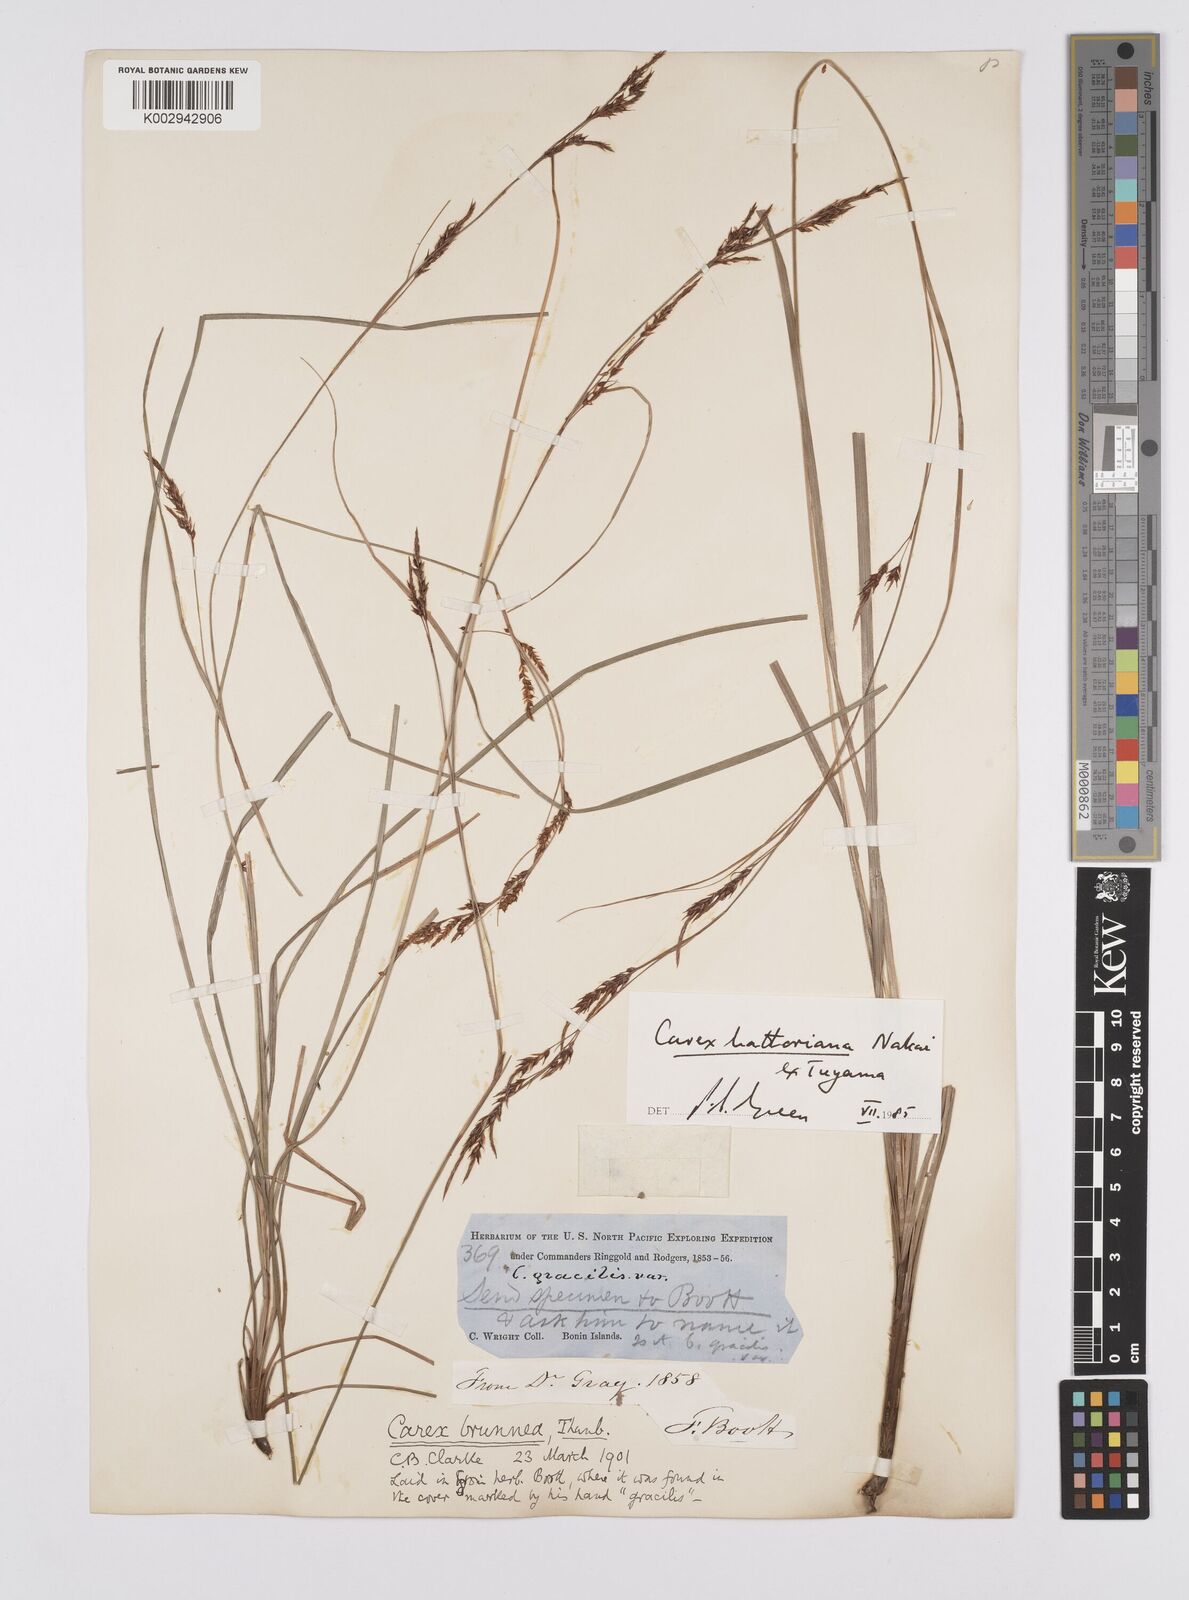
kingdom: Plantae
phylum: Tracheophyta
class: Liliopsida
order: Poales
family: Cyperaceae
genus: Carex
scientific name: Carex hattoriana
